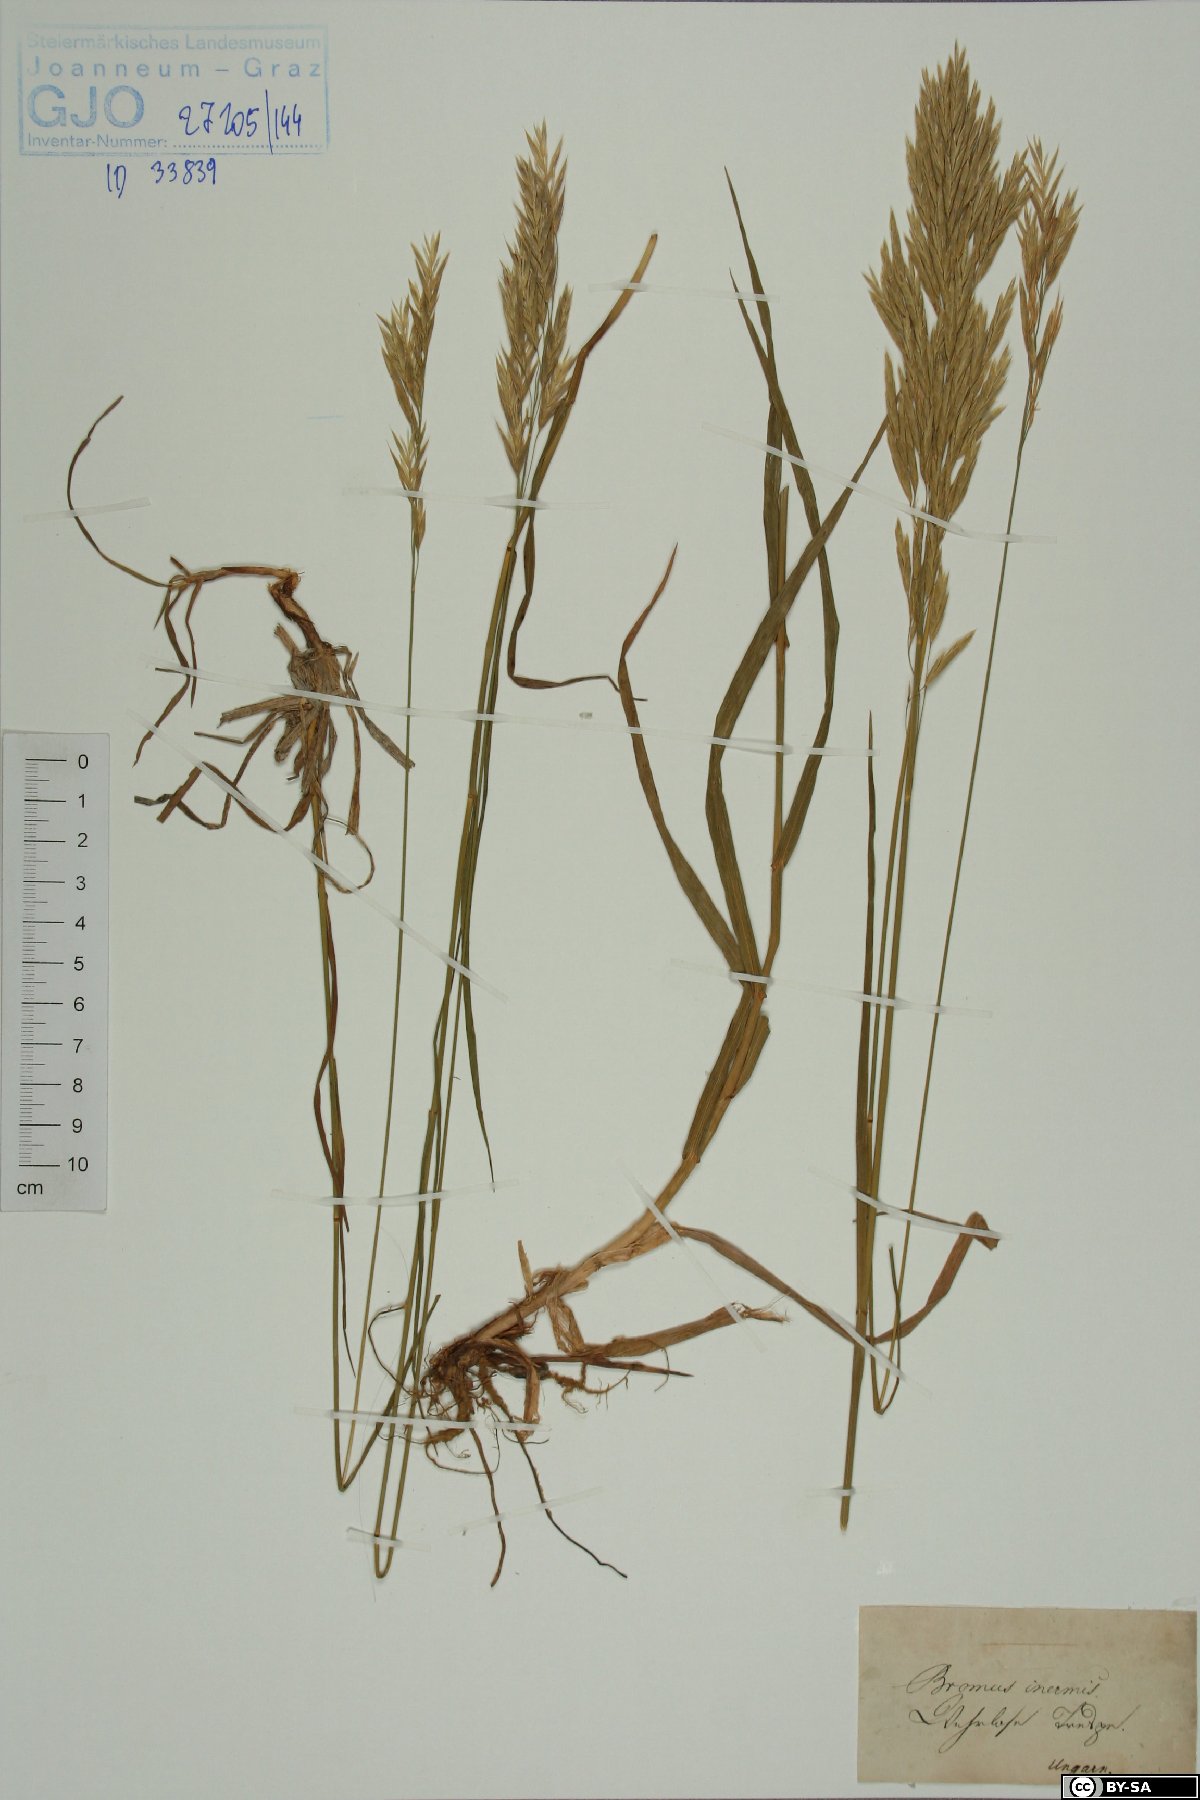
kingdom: Plantae
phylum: Tracheophyta
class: Liliopsida
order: Poales
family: Poaceae
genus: Bromus
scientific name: Bromus inermis
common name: Smooth brome
